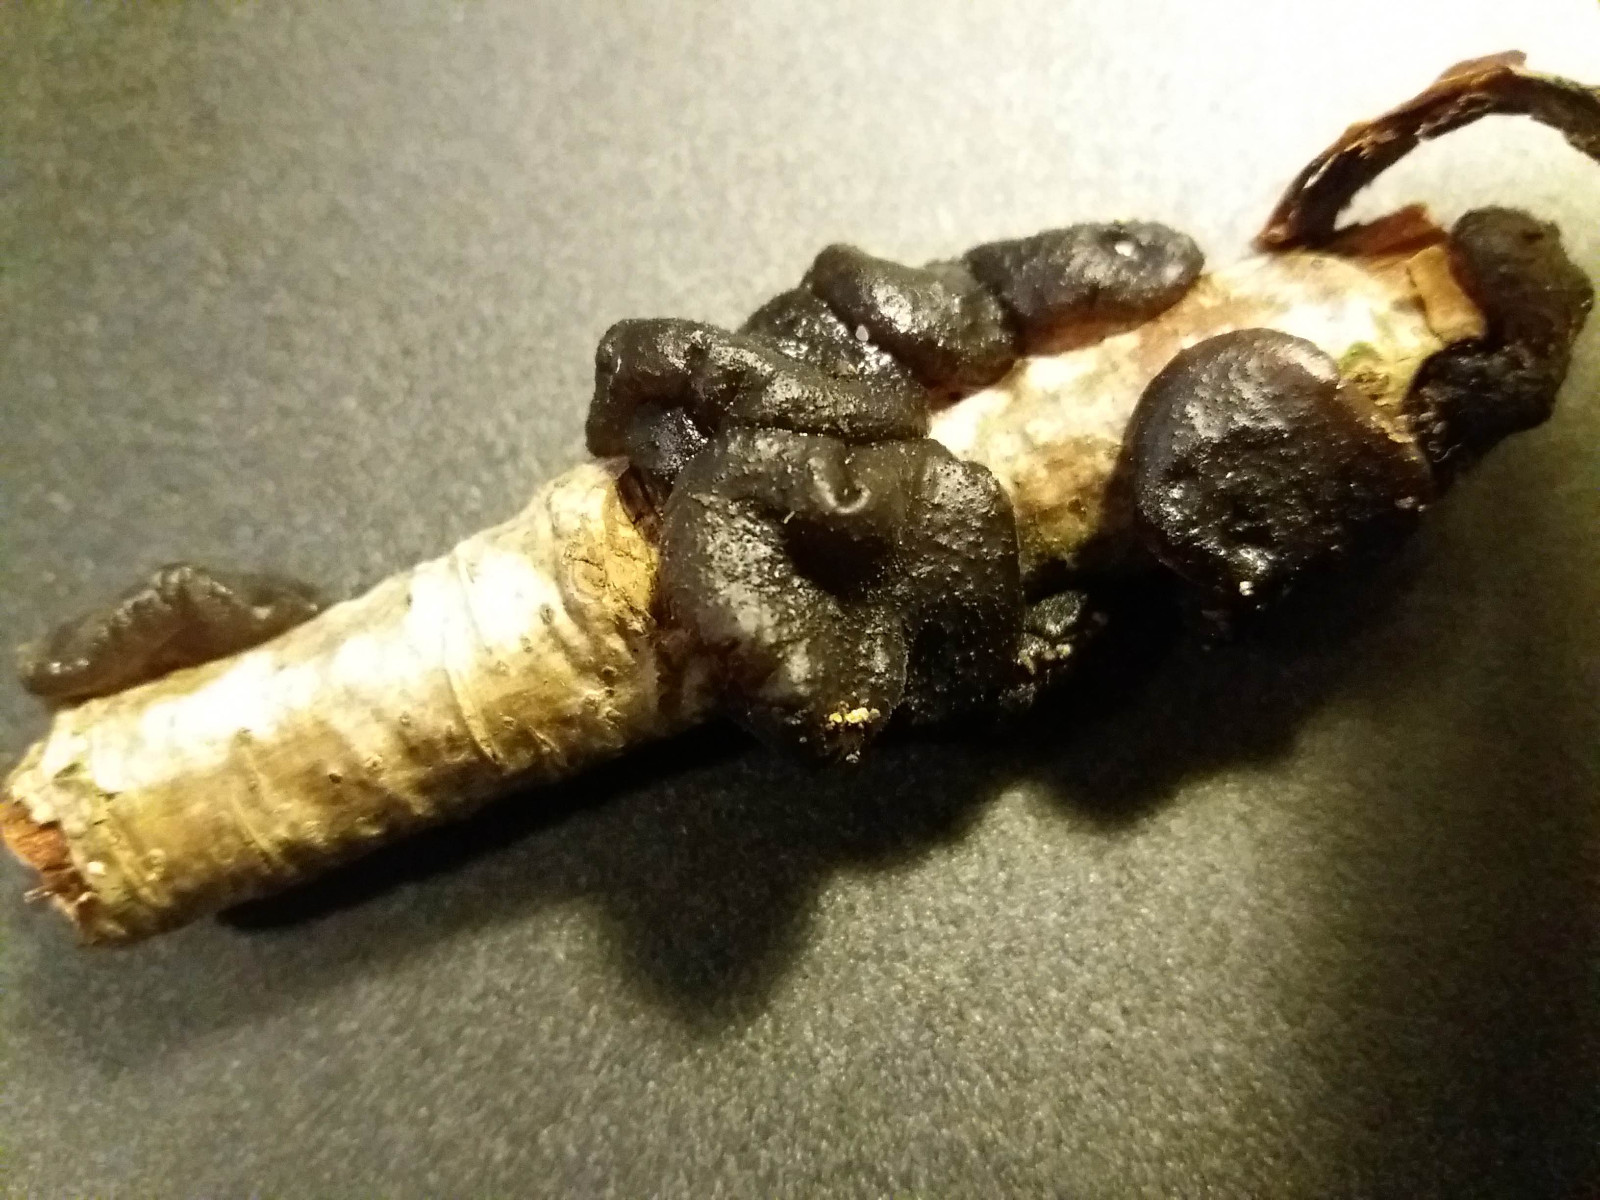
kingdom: Fungi
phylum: Basidiomycota
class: Agaricomycetes
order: Auriculariales
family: Auriculariaceae
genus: Exidia
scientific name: Exidia glandulosa
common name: ege-bævretop
